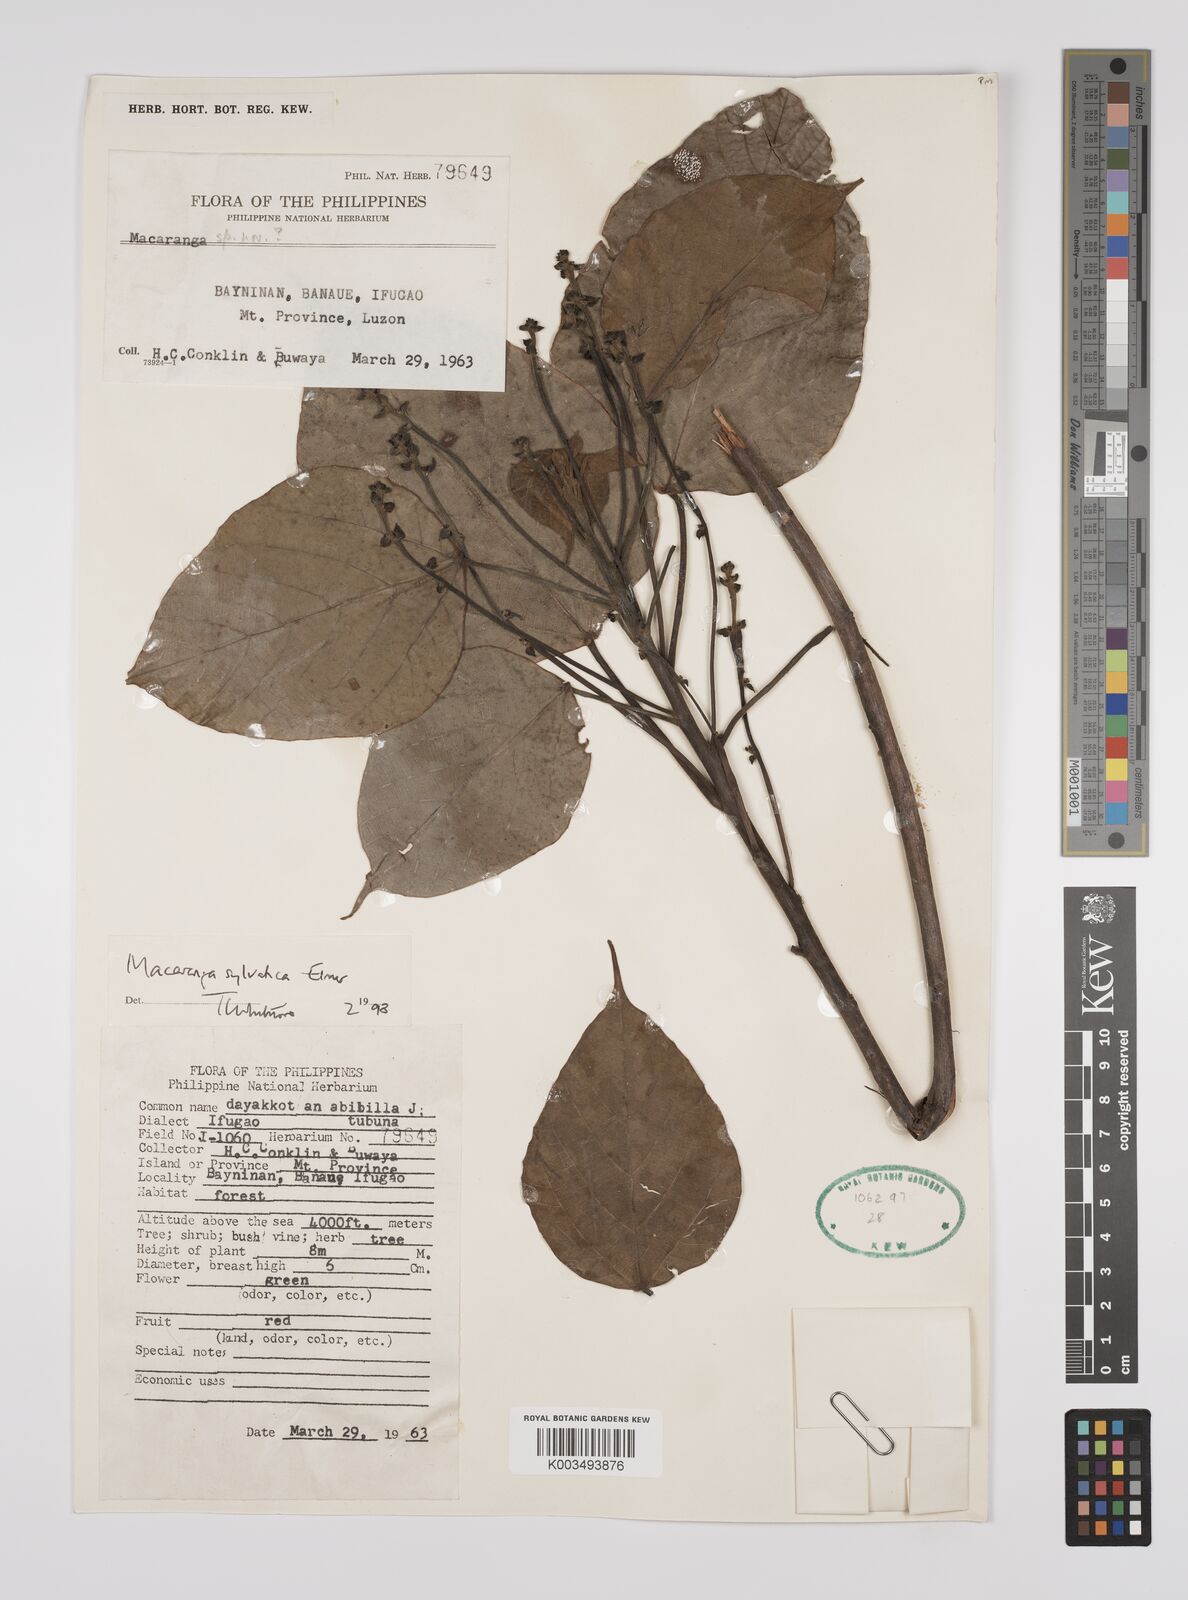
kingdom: Plantae
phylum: Tracheophyta
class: Magnoliopsida
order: Malpighiales
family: Euphorbiaceae
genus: Macaranga
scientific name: Macaranga sylvatica
